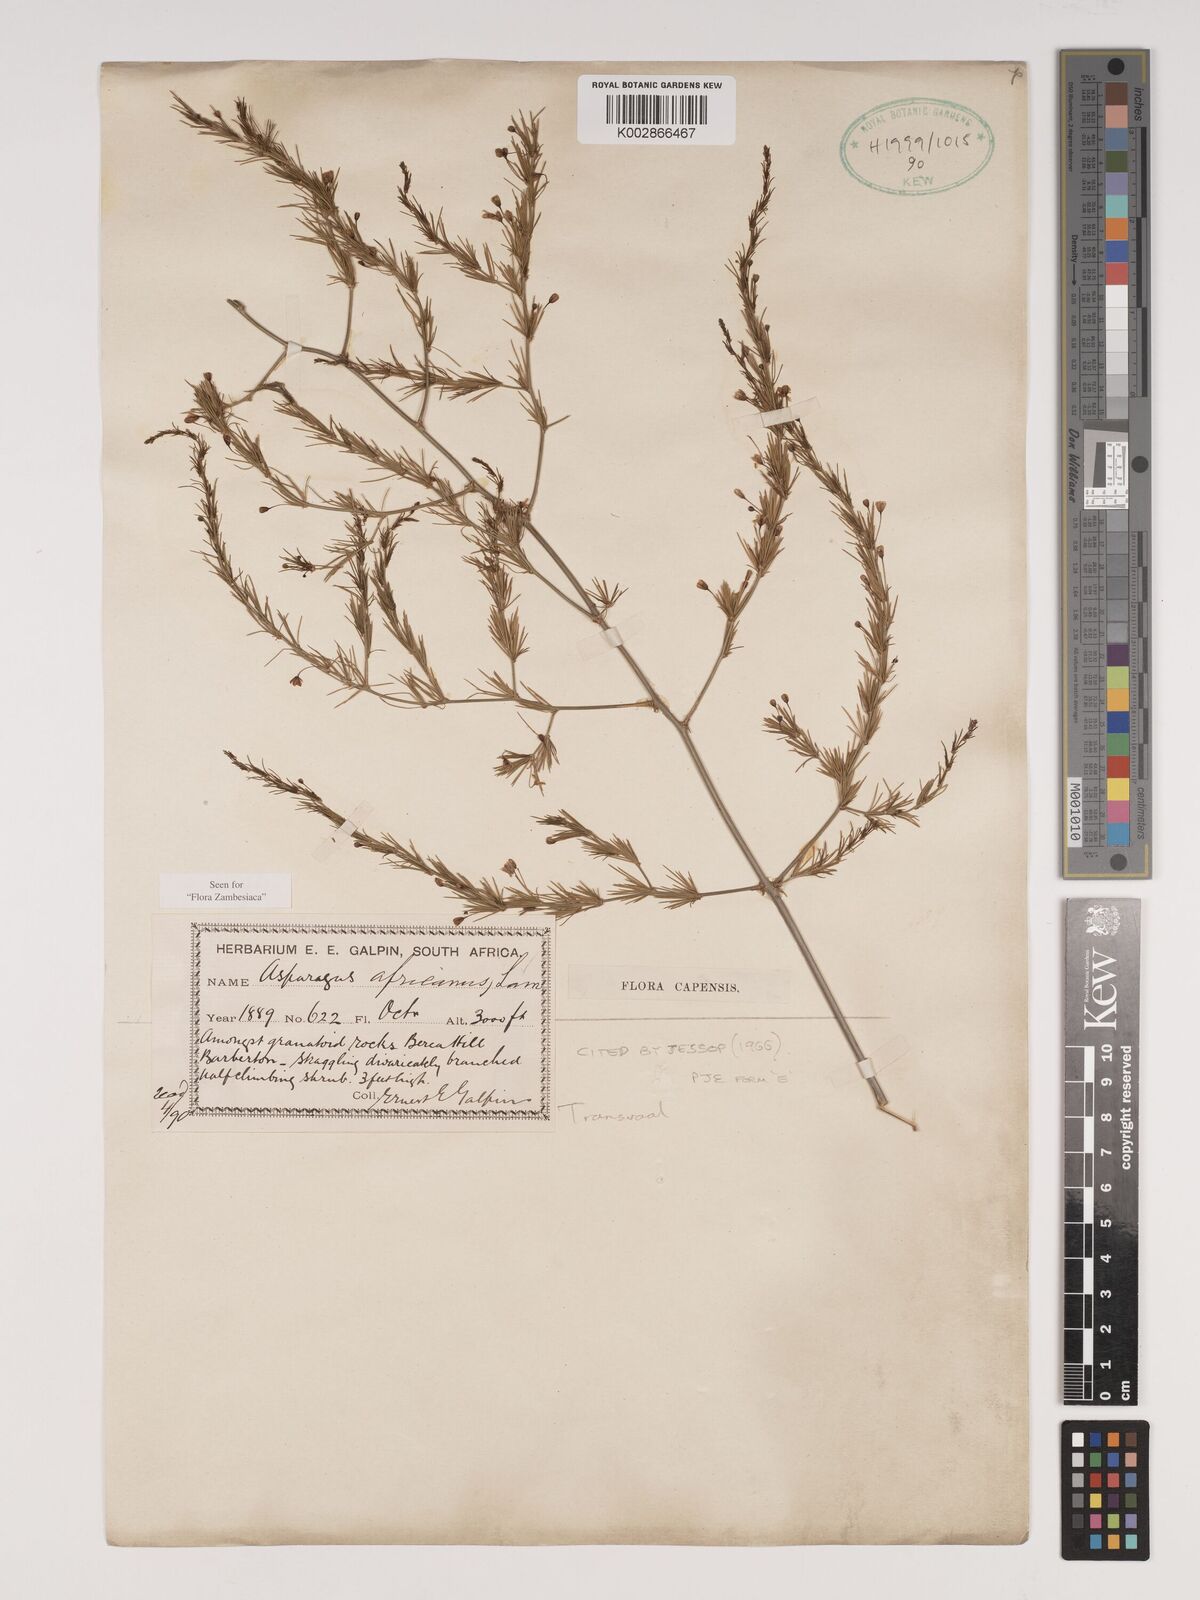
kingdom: Plantae
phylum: Tracheophyta
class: Liliopsida
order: Asparagales
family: Asparagaceae
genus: Asparagus
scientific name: Asparagus africanus
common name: Asparagus-fern
